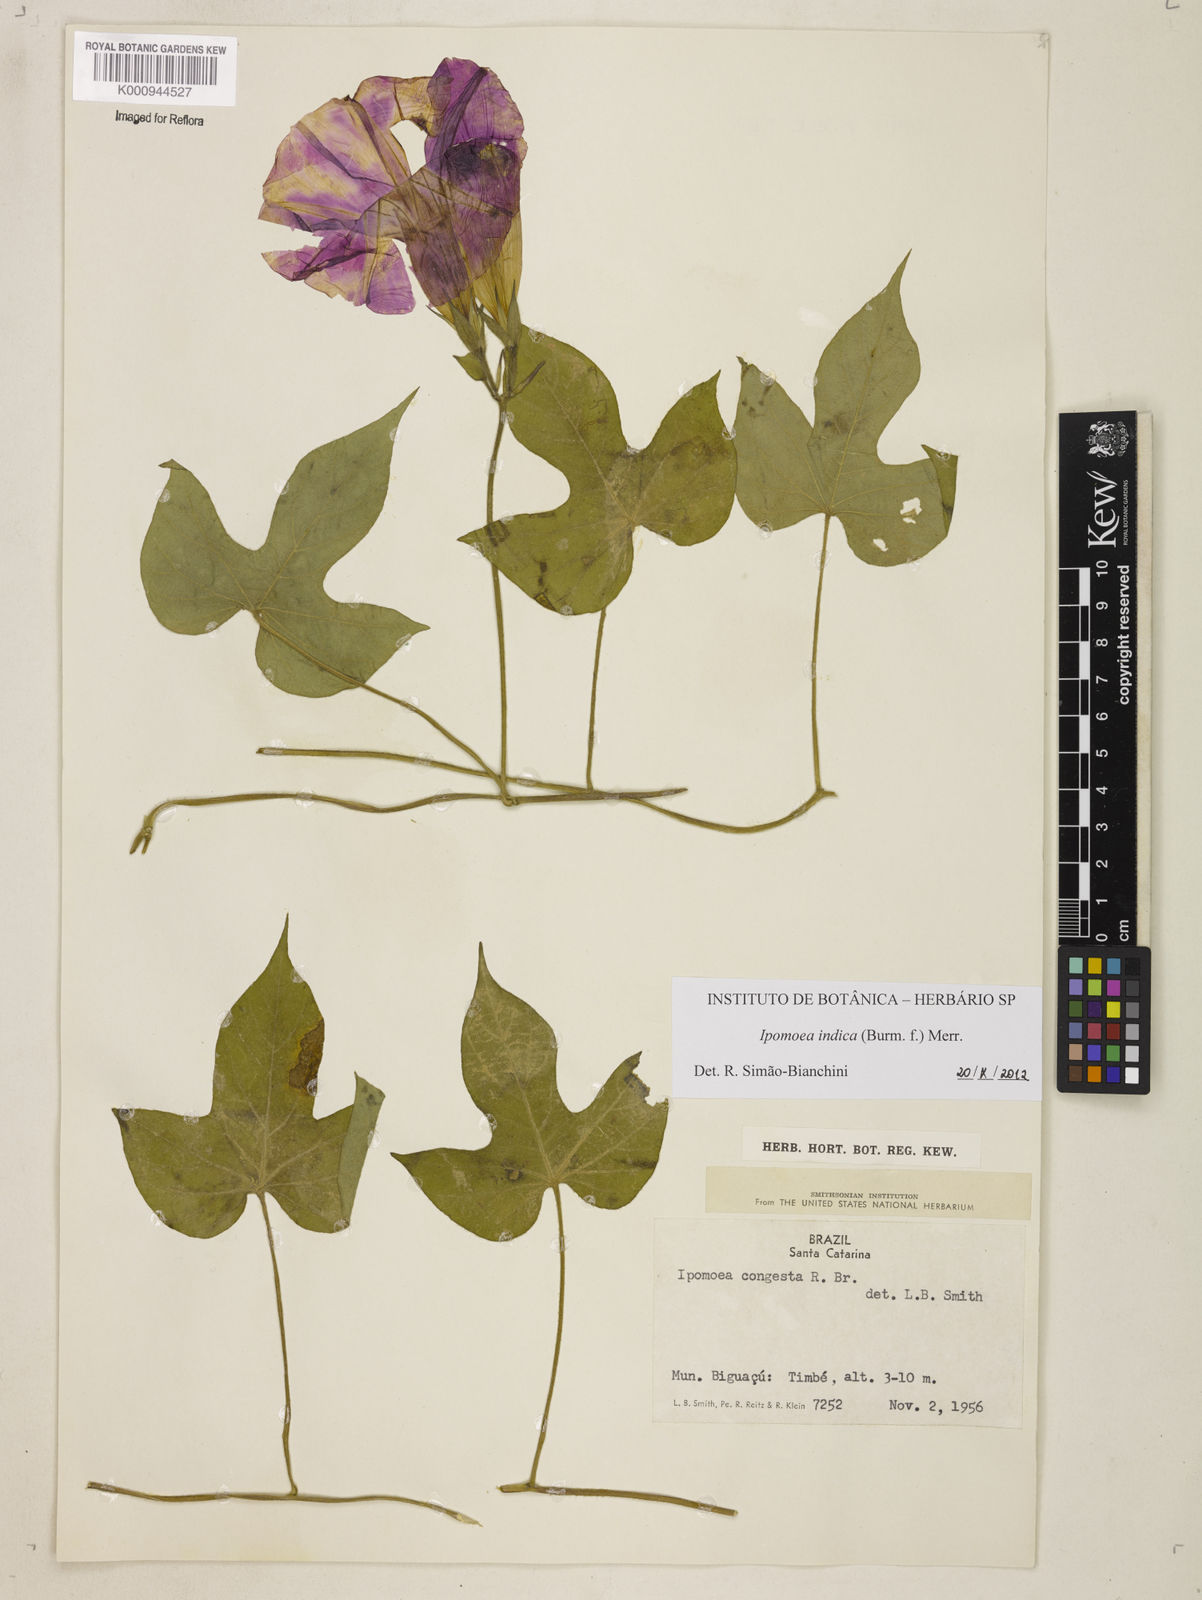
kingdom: Plantae
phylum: Tracheophyta
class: Magnoliopsida
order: Solanales
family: Convolvulaceae
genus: Ipomoea
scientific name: Ipomoea indica
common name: Blue dawnflower
